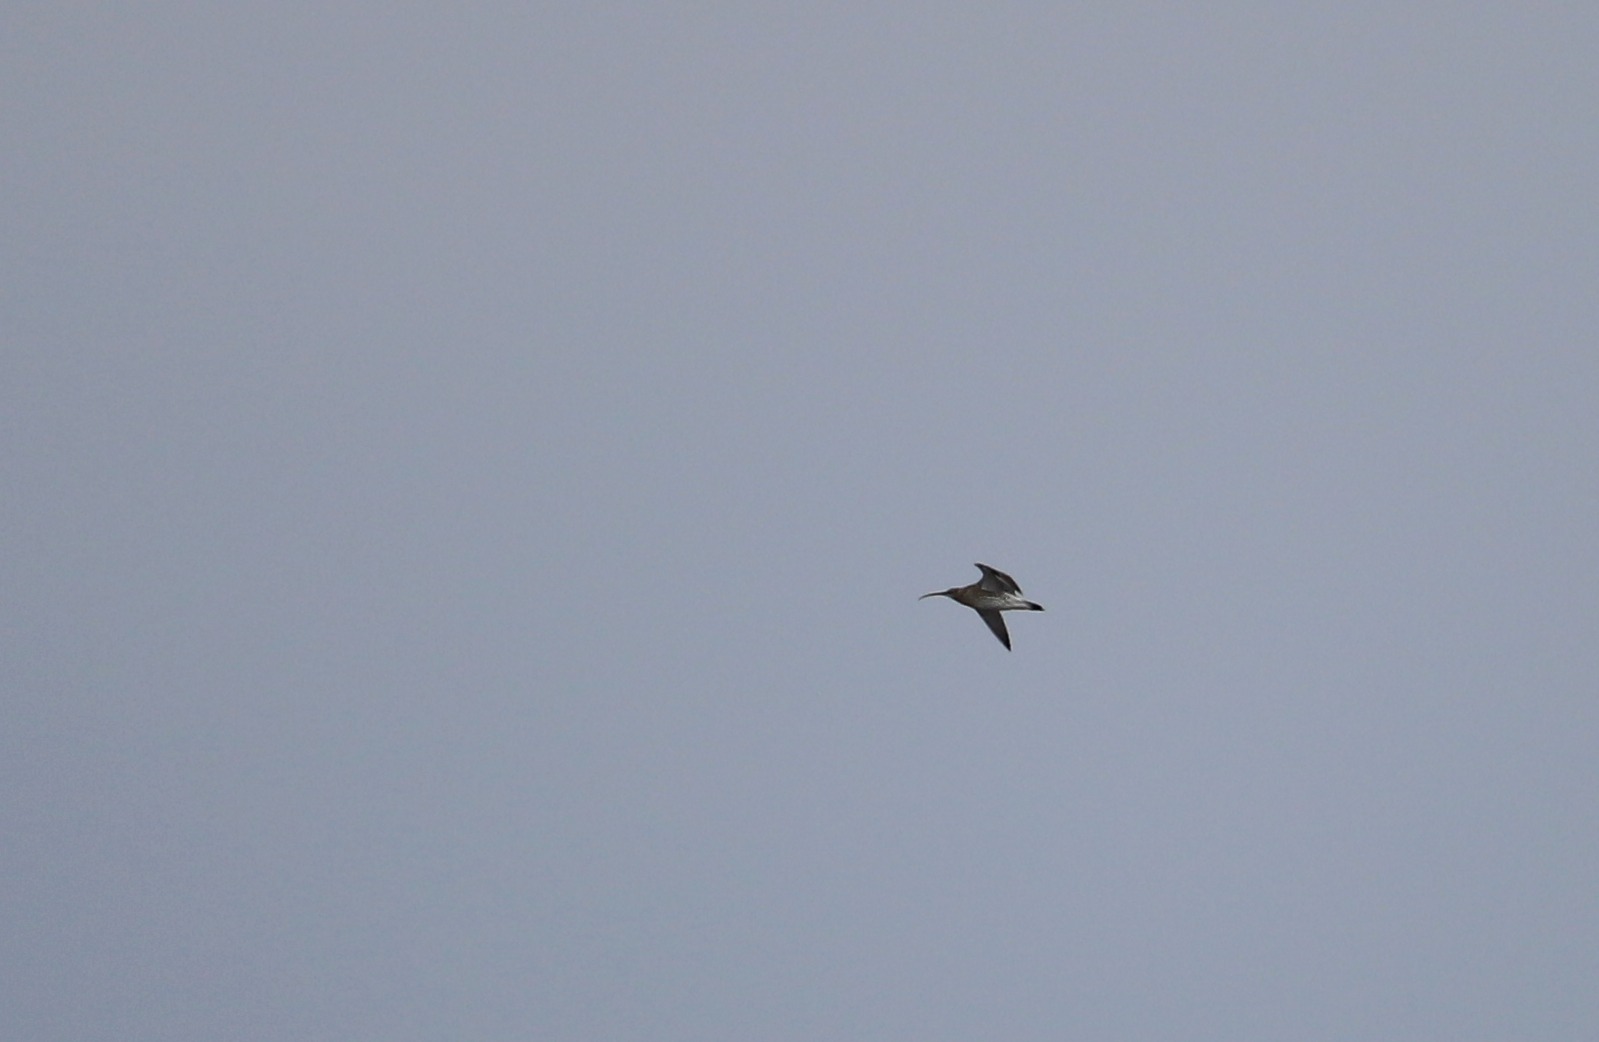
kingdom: Animalia
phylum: Chordata
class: Aves
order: Charadriiformes
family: Scolopacidae
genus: Numenius
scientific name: Numenius arquata
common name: Storspove
